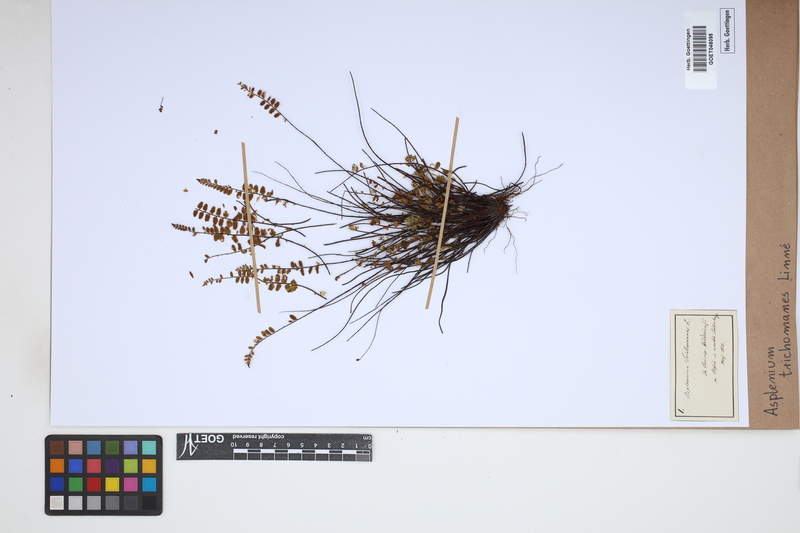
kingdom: Plantae
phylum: Tracheophyta
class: Polypodiopsida
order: Polypodiales
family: Aspleniaceae
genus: Asplenium
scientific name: Asplenium trichomanes
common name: Maidenhair spleenwort
